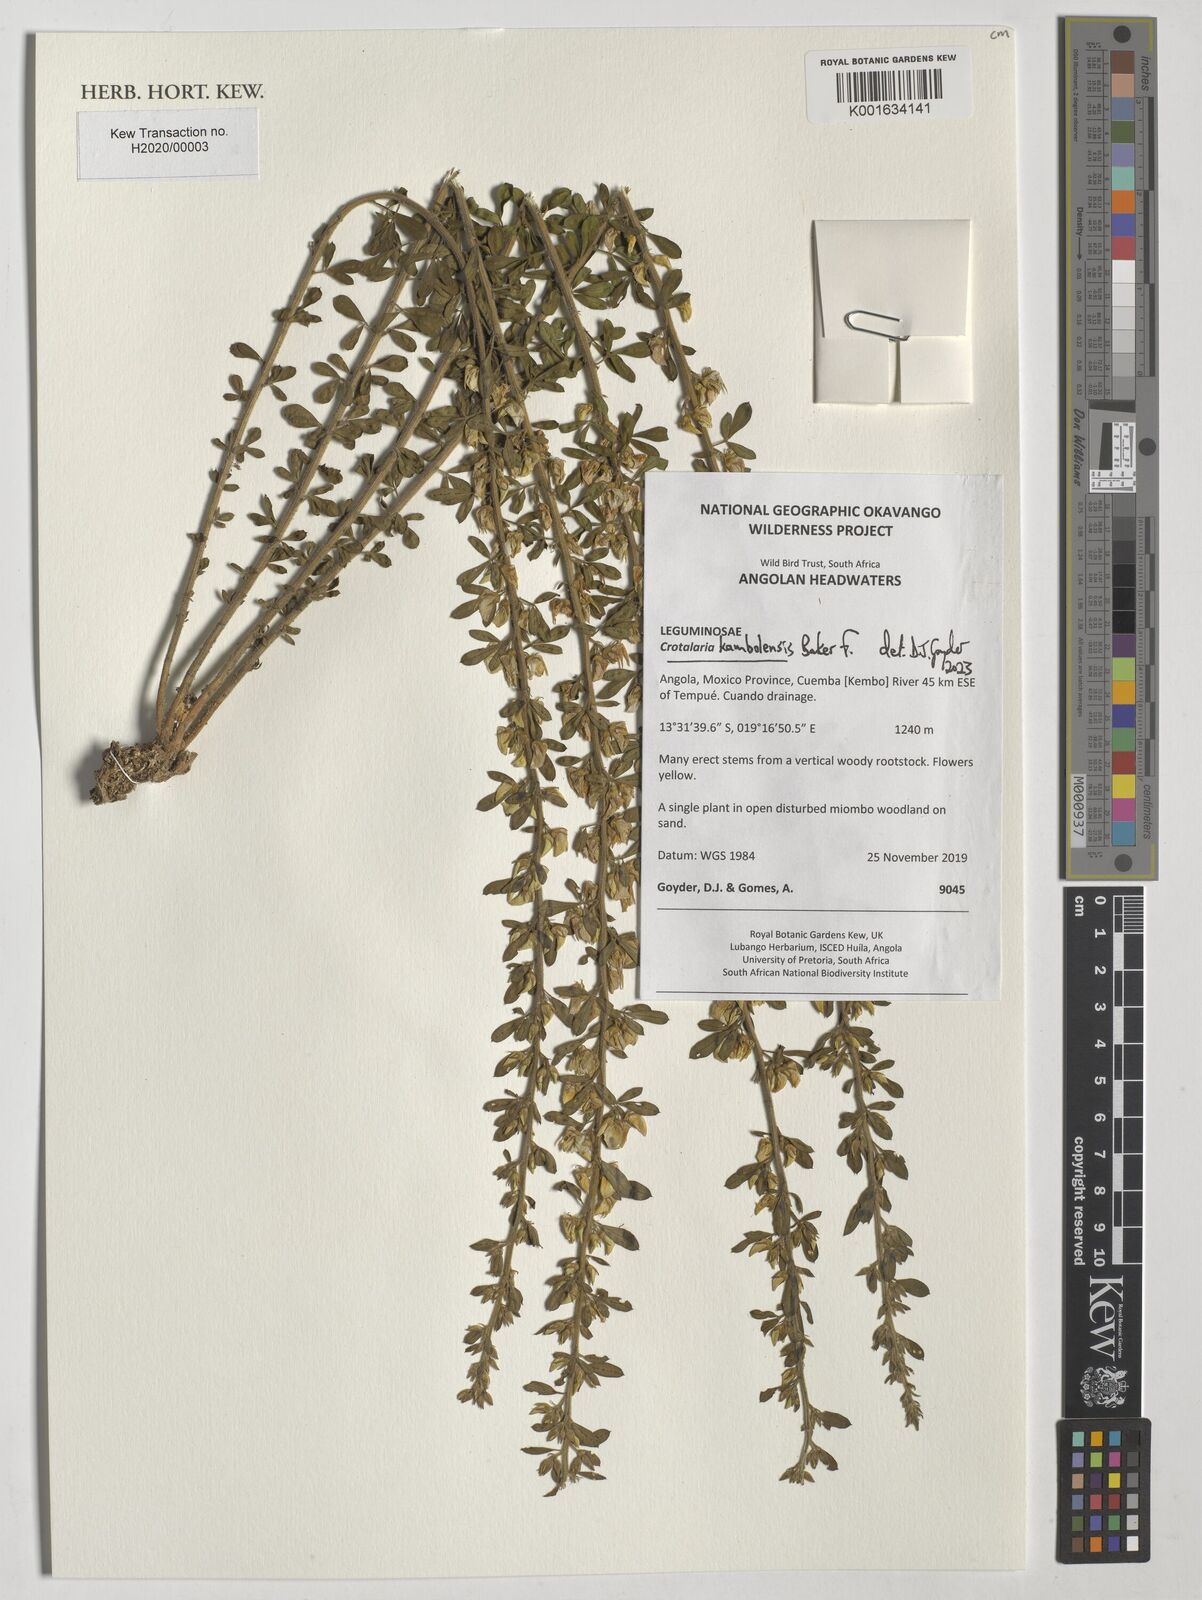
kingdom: Plantae
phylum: Tracheophyta
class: Magnoliopsida
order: Fabales
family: Fabaceae
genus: Crotalaria
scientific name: Crotalaria kambolensis
